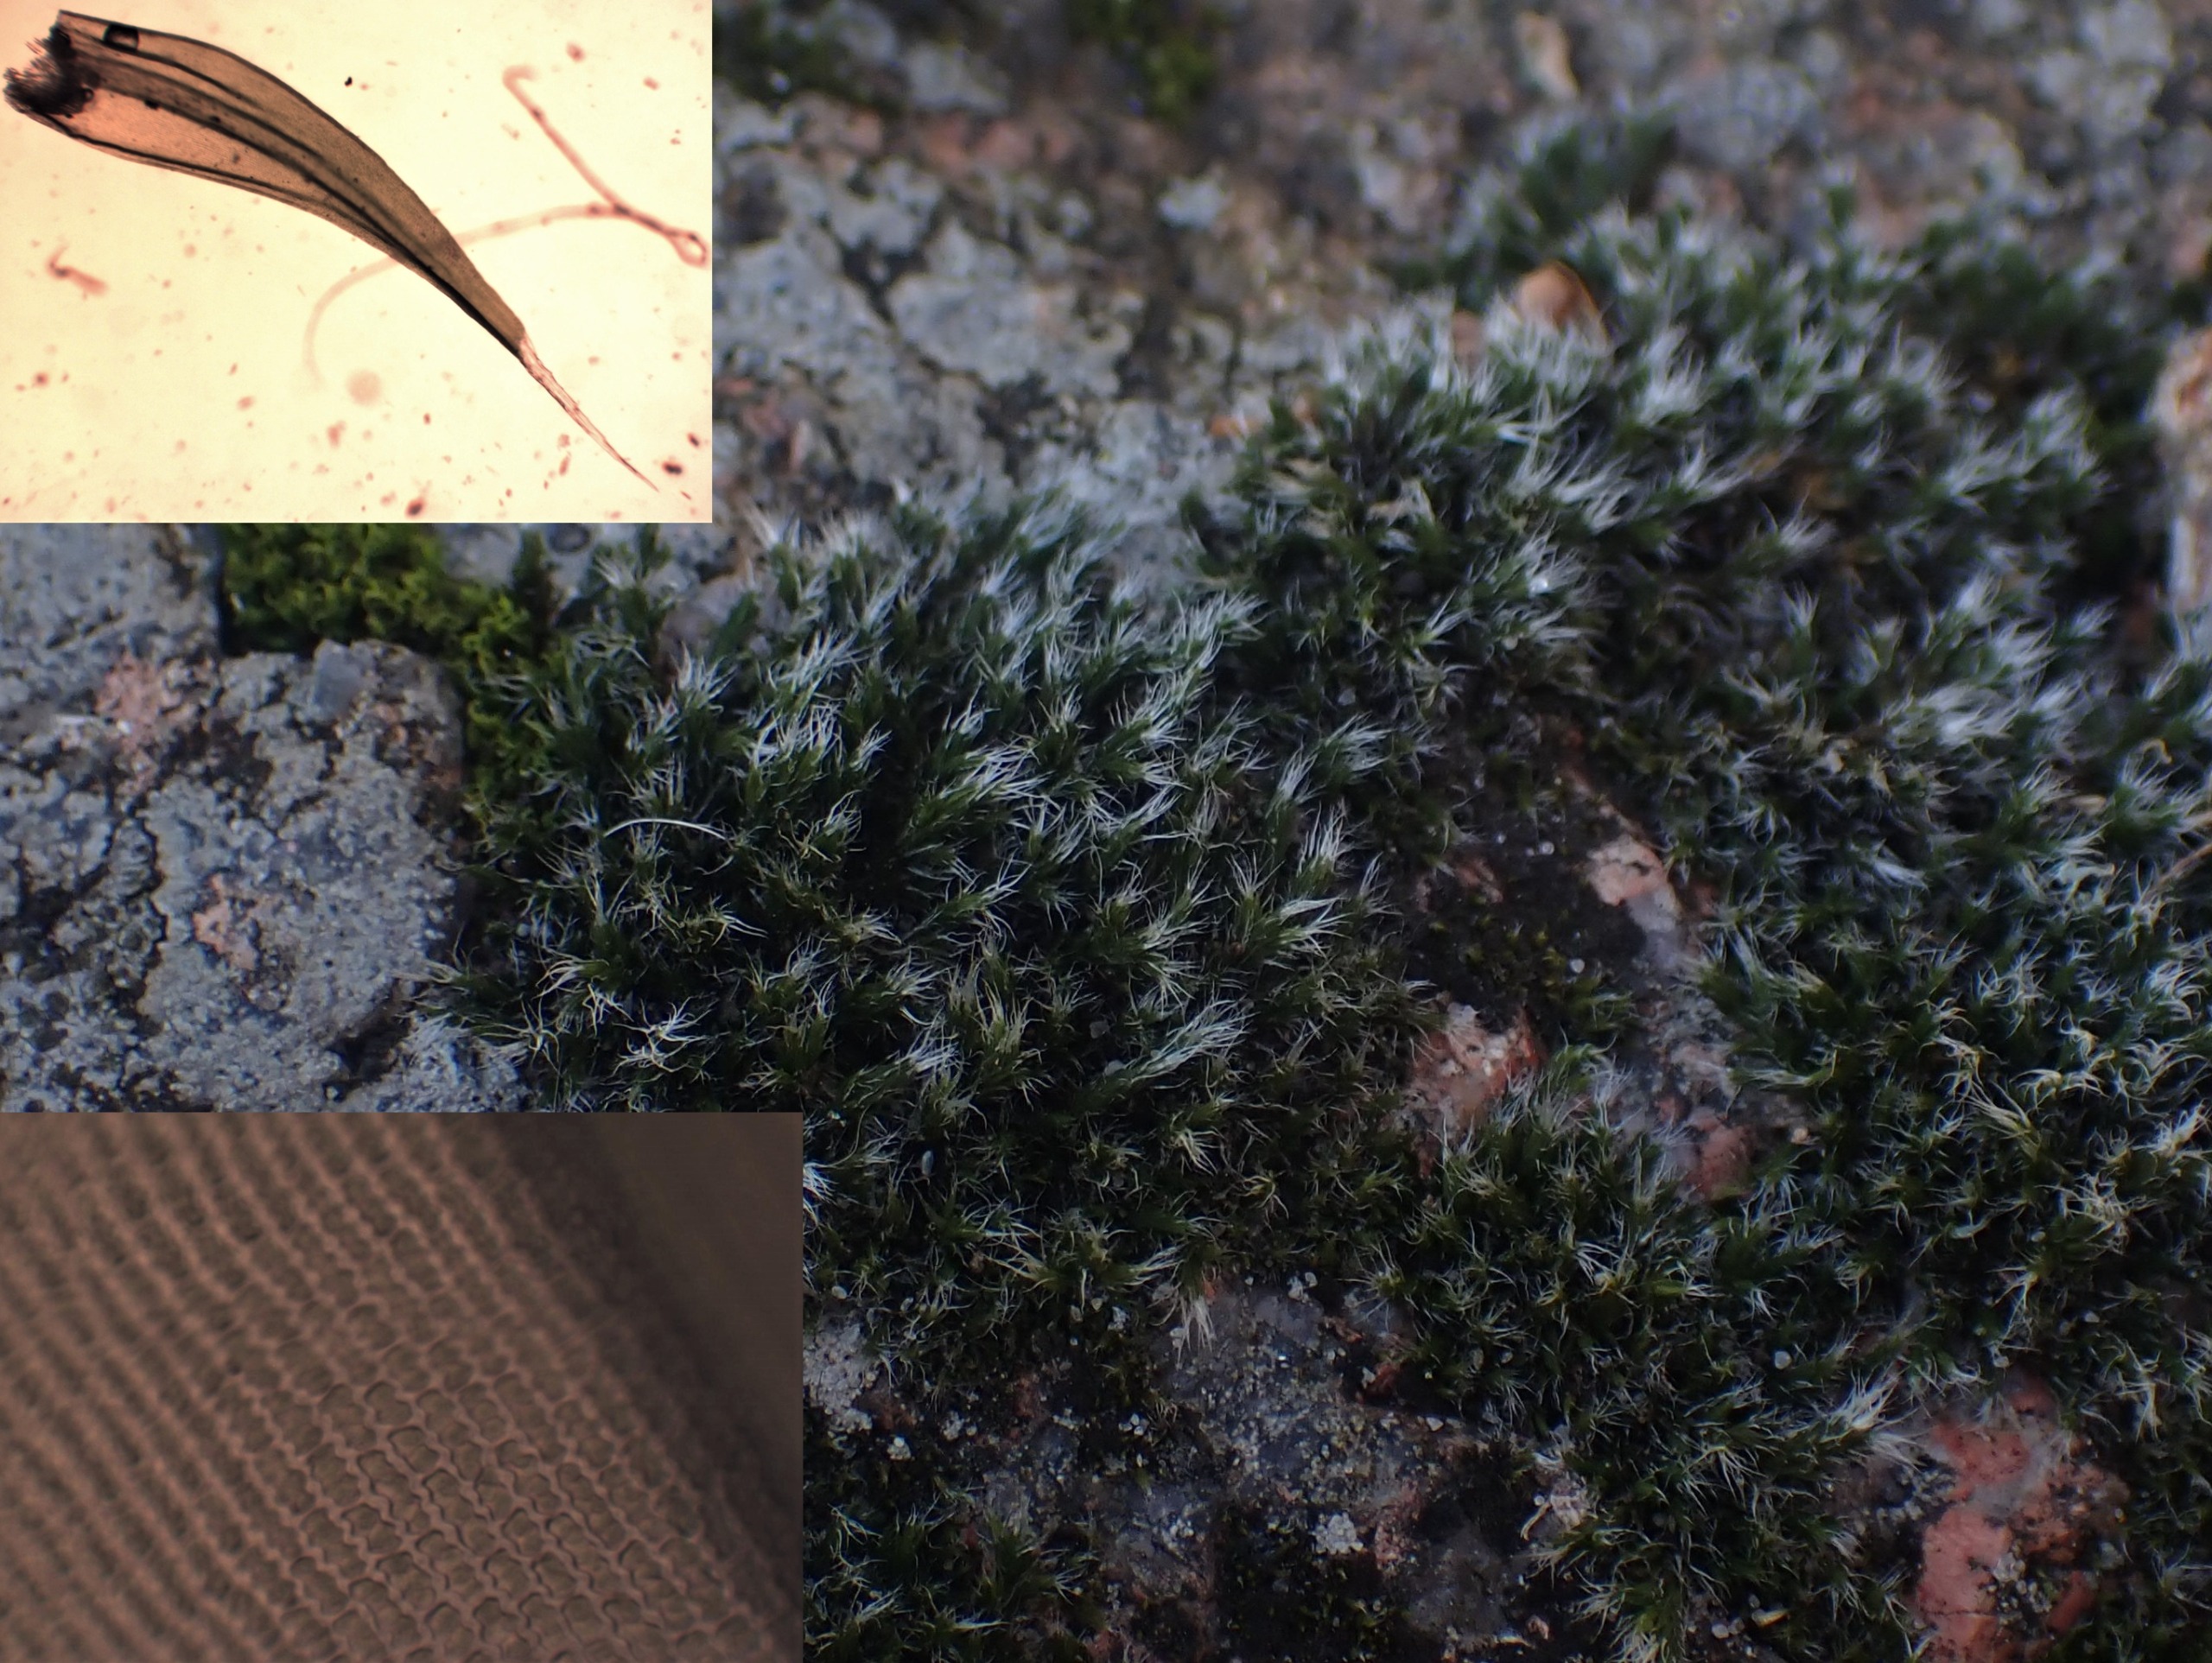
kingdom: Plantae
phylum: Bryophyta
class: Bryopsida
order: Grimmiales
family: Grimmiaceae
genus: Bucklandiella
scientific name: Bucklandiella heterosticha
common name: Sten-børstemos
